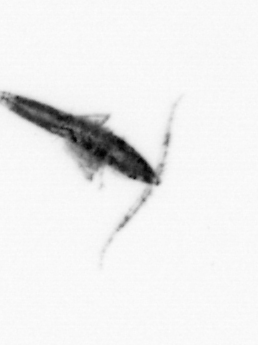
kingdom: Animalia
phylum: Arthropoda
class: Copepoda
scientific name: Copepoda
